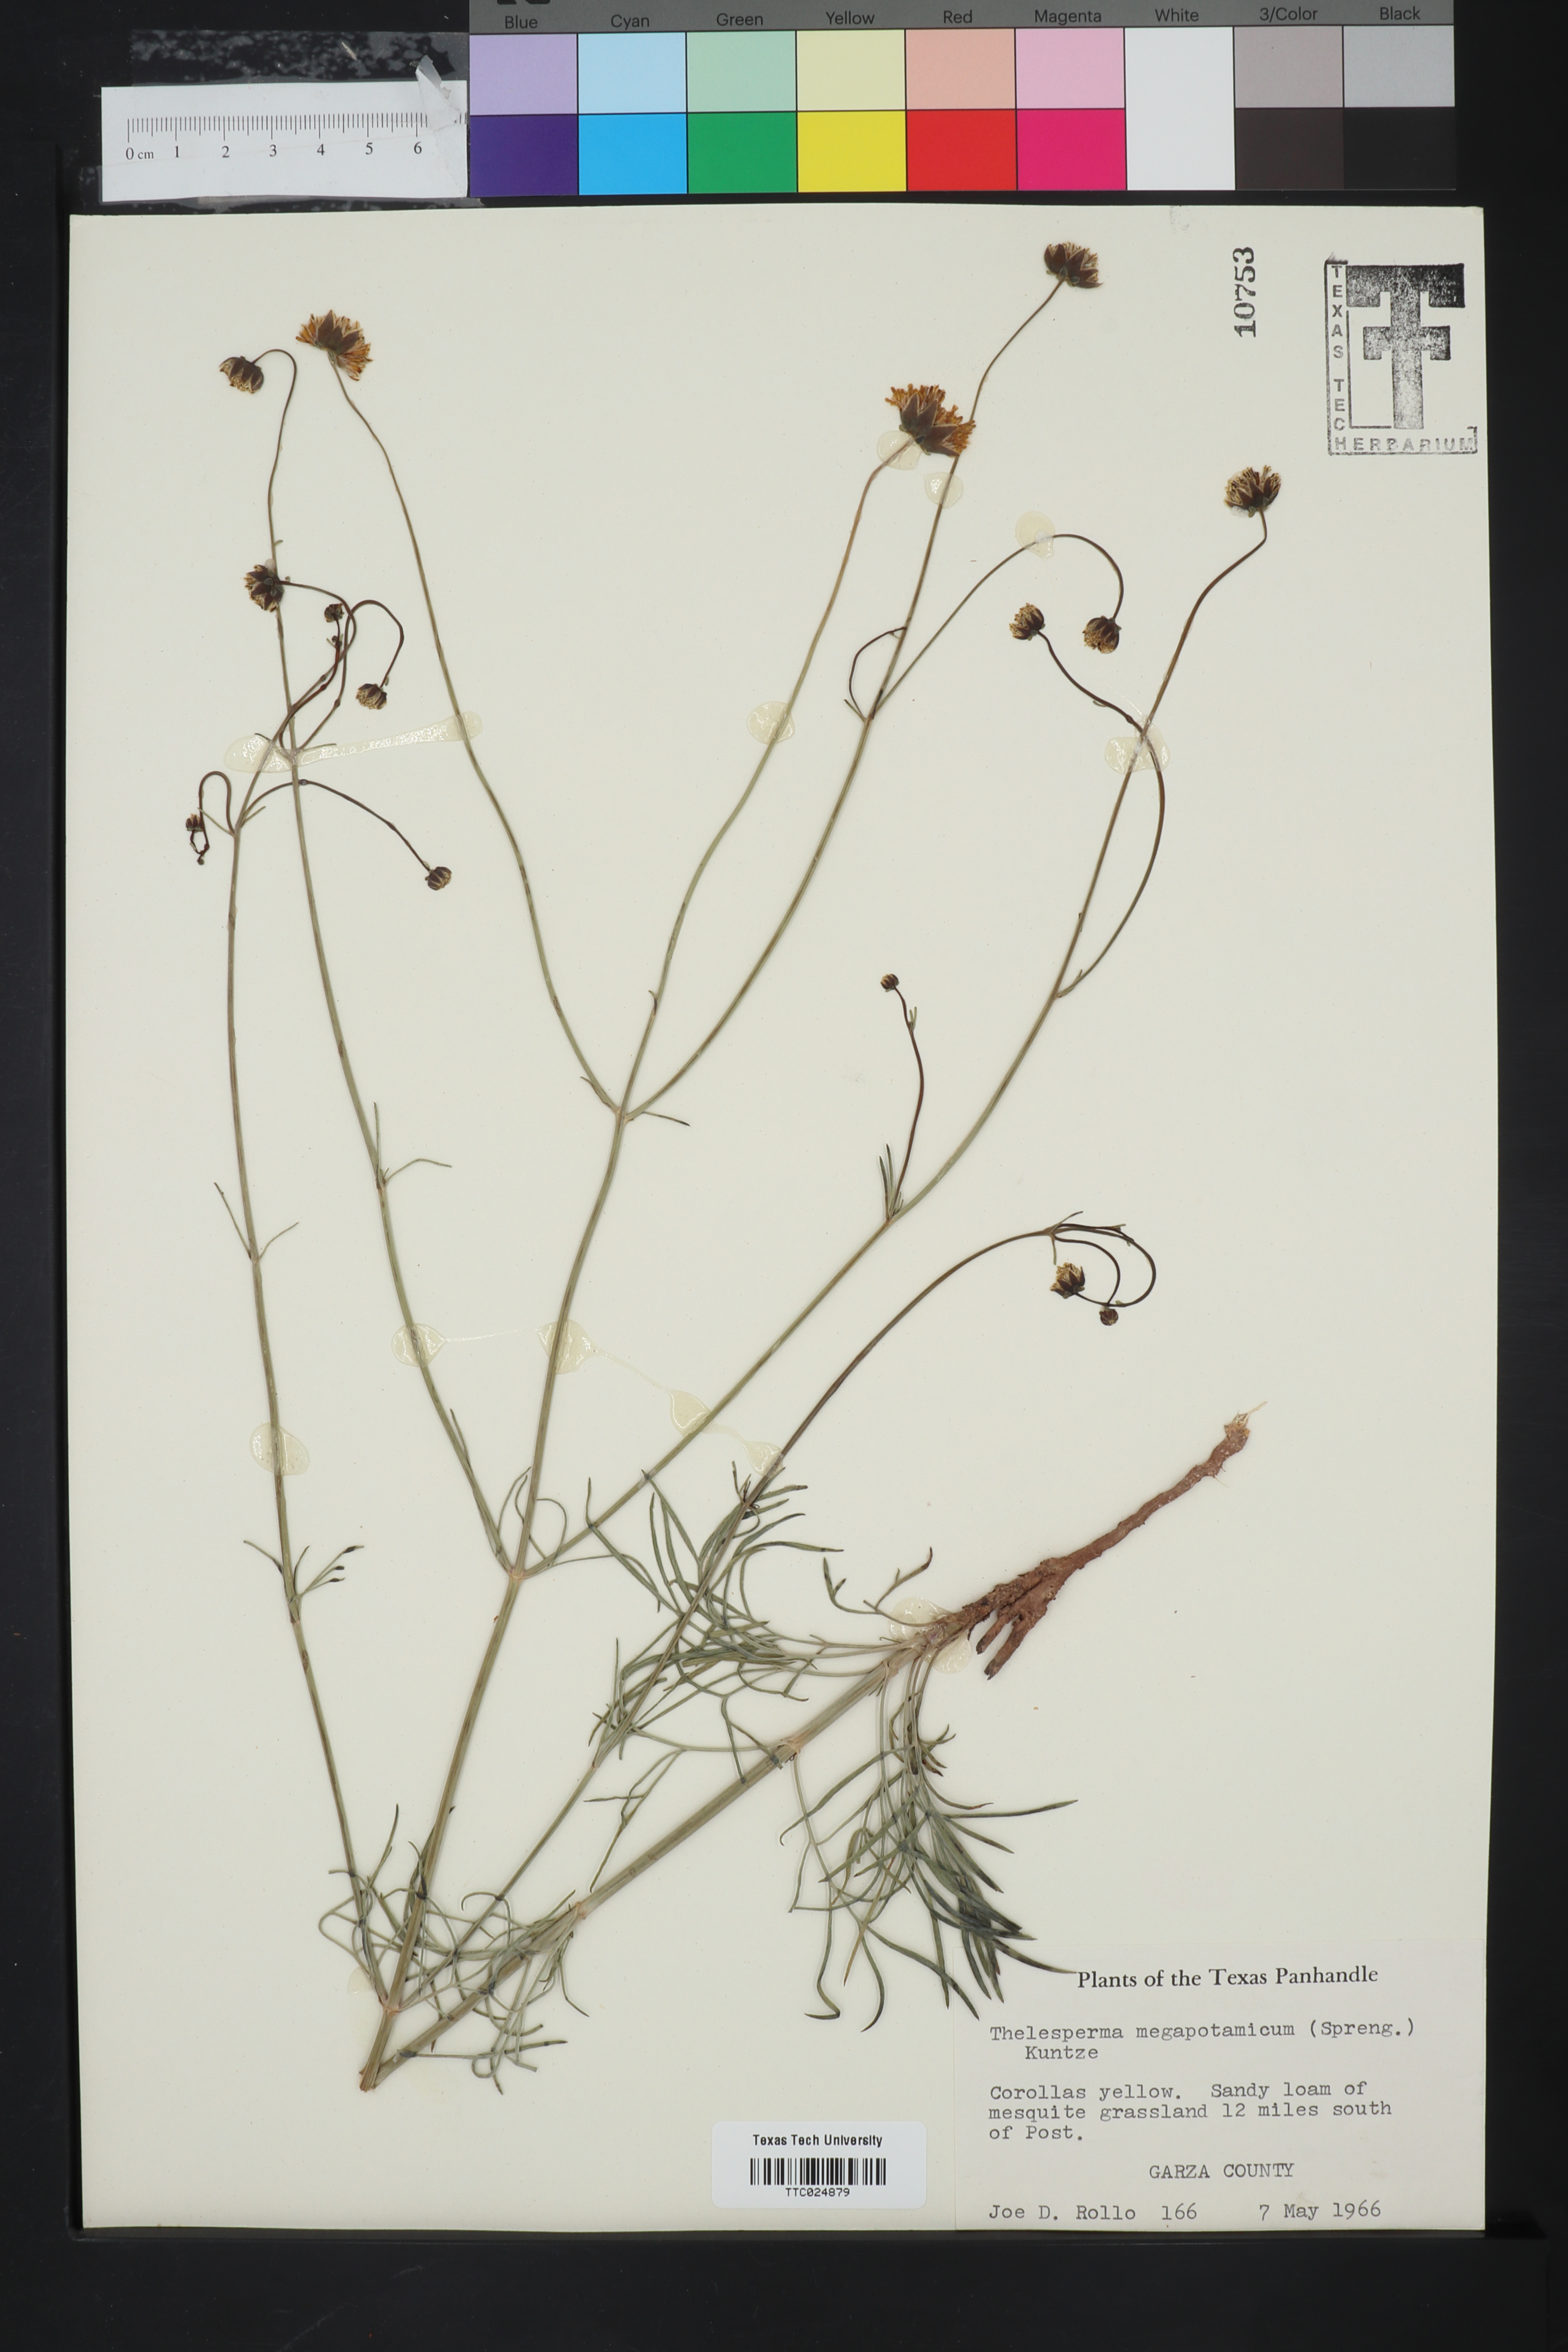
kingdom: Plantae
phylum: Tracheophyta
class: Magnoliopsida
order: Asterales
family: Asteraceae
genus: Thelesperma
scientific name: Thelesperma megapotamicum
